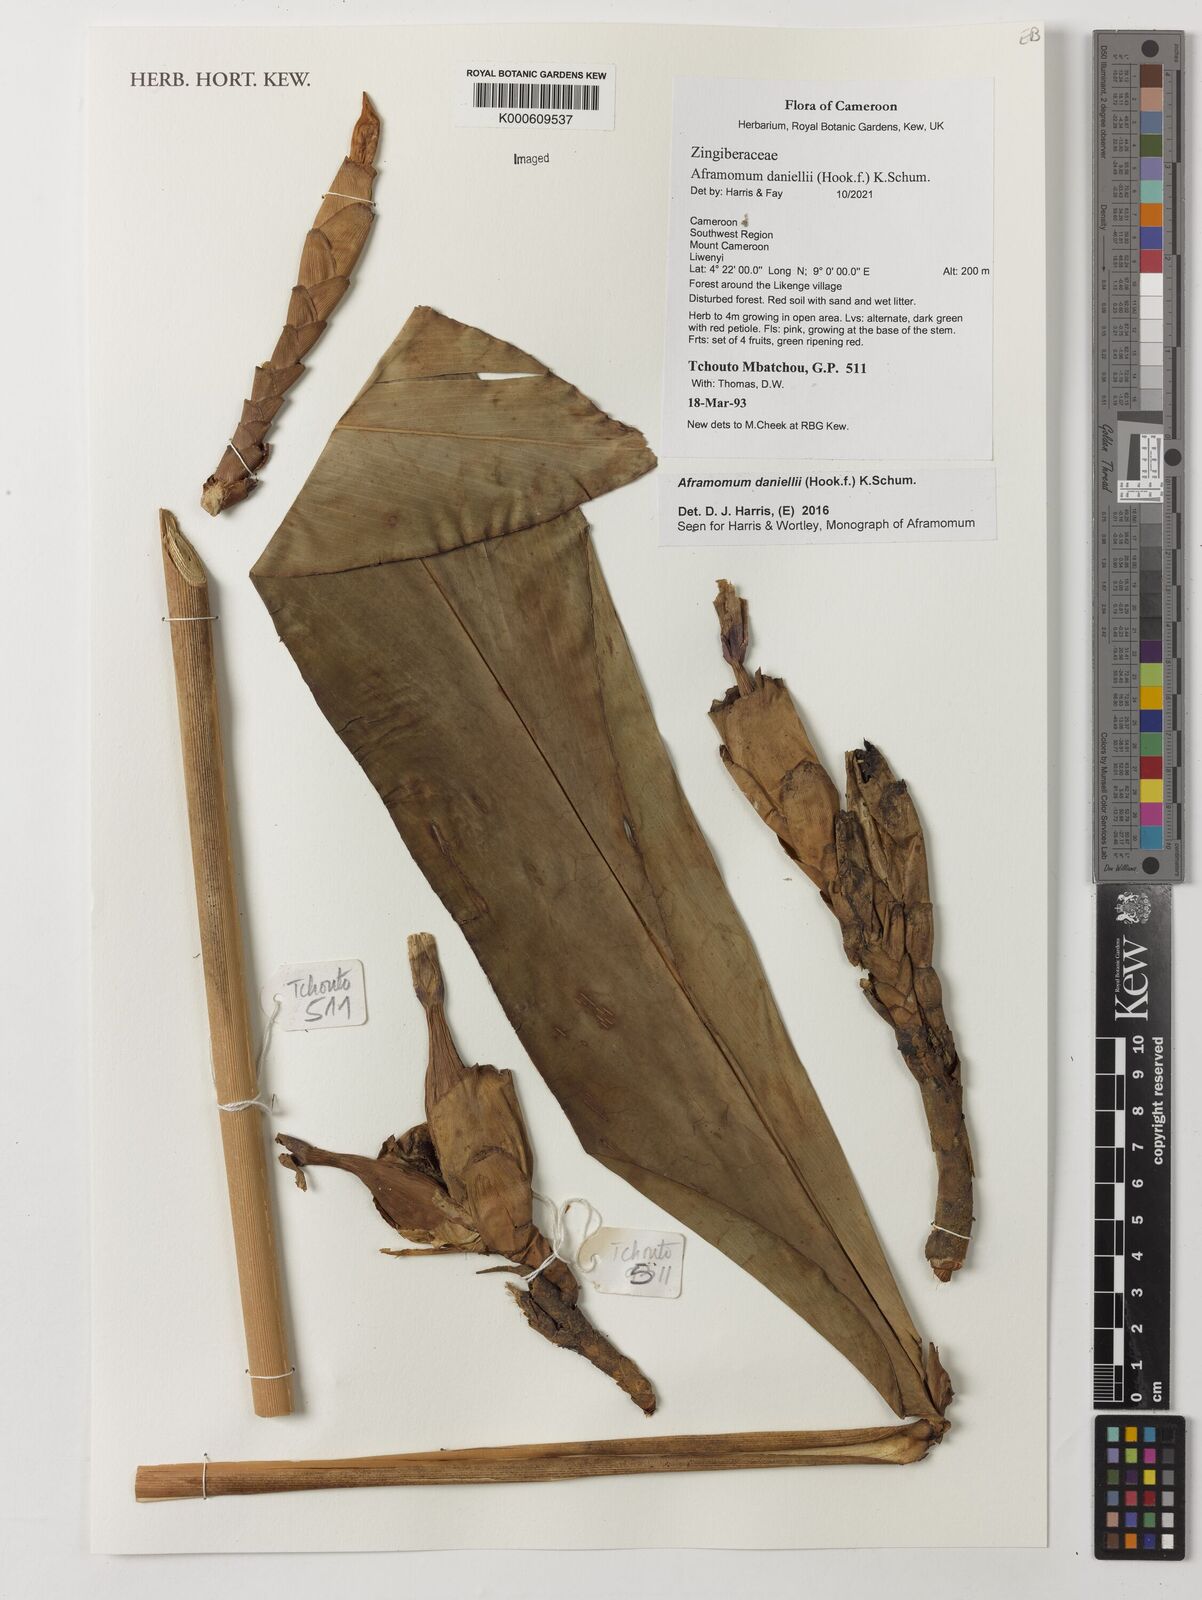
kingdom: Plantae
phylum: Tracheophyta
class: Liliopsida
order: Zingiberales
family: Zingiberaceae
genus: Aframomum
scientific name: Aframomum daniellii
